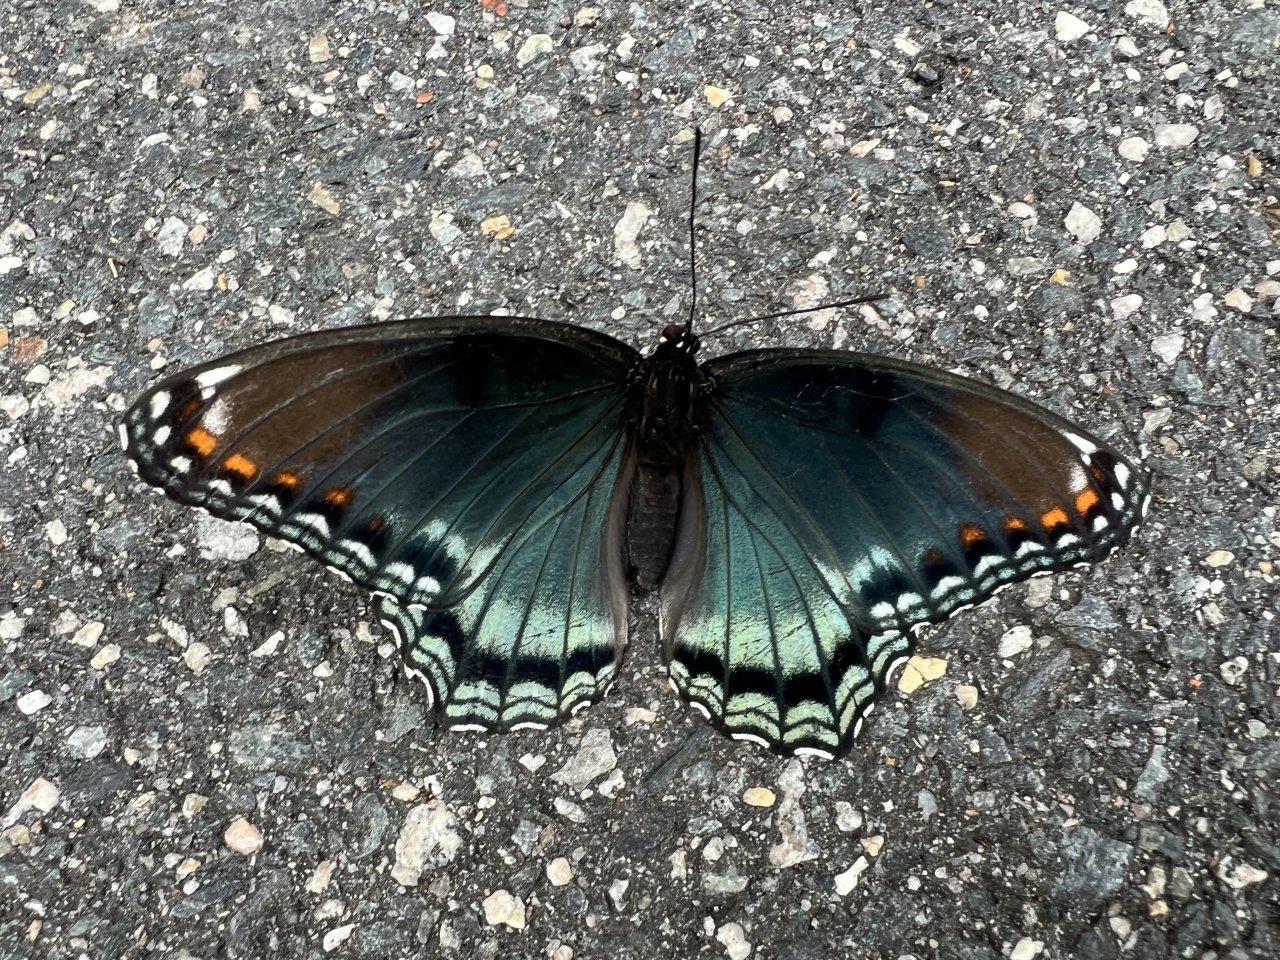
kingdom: Animalia
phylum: Arthropoda
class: Insecta
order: Lepidoptera
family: Nymphalidae
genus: Limenitis
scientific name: Limenitis arthemis
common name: Red-spotted Admiral
